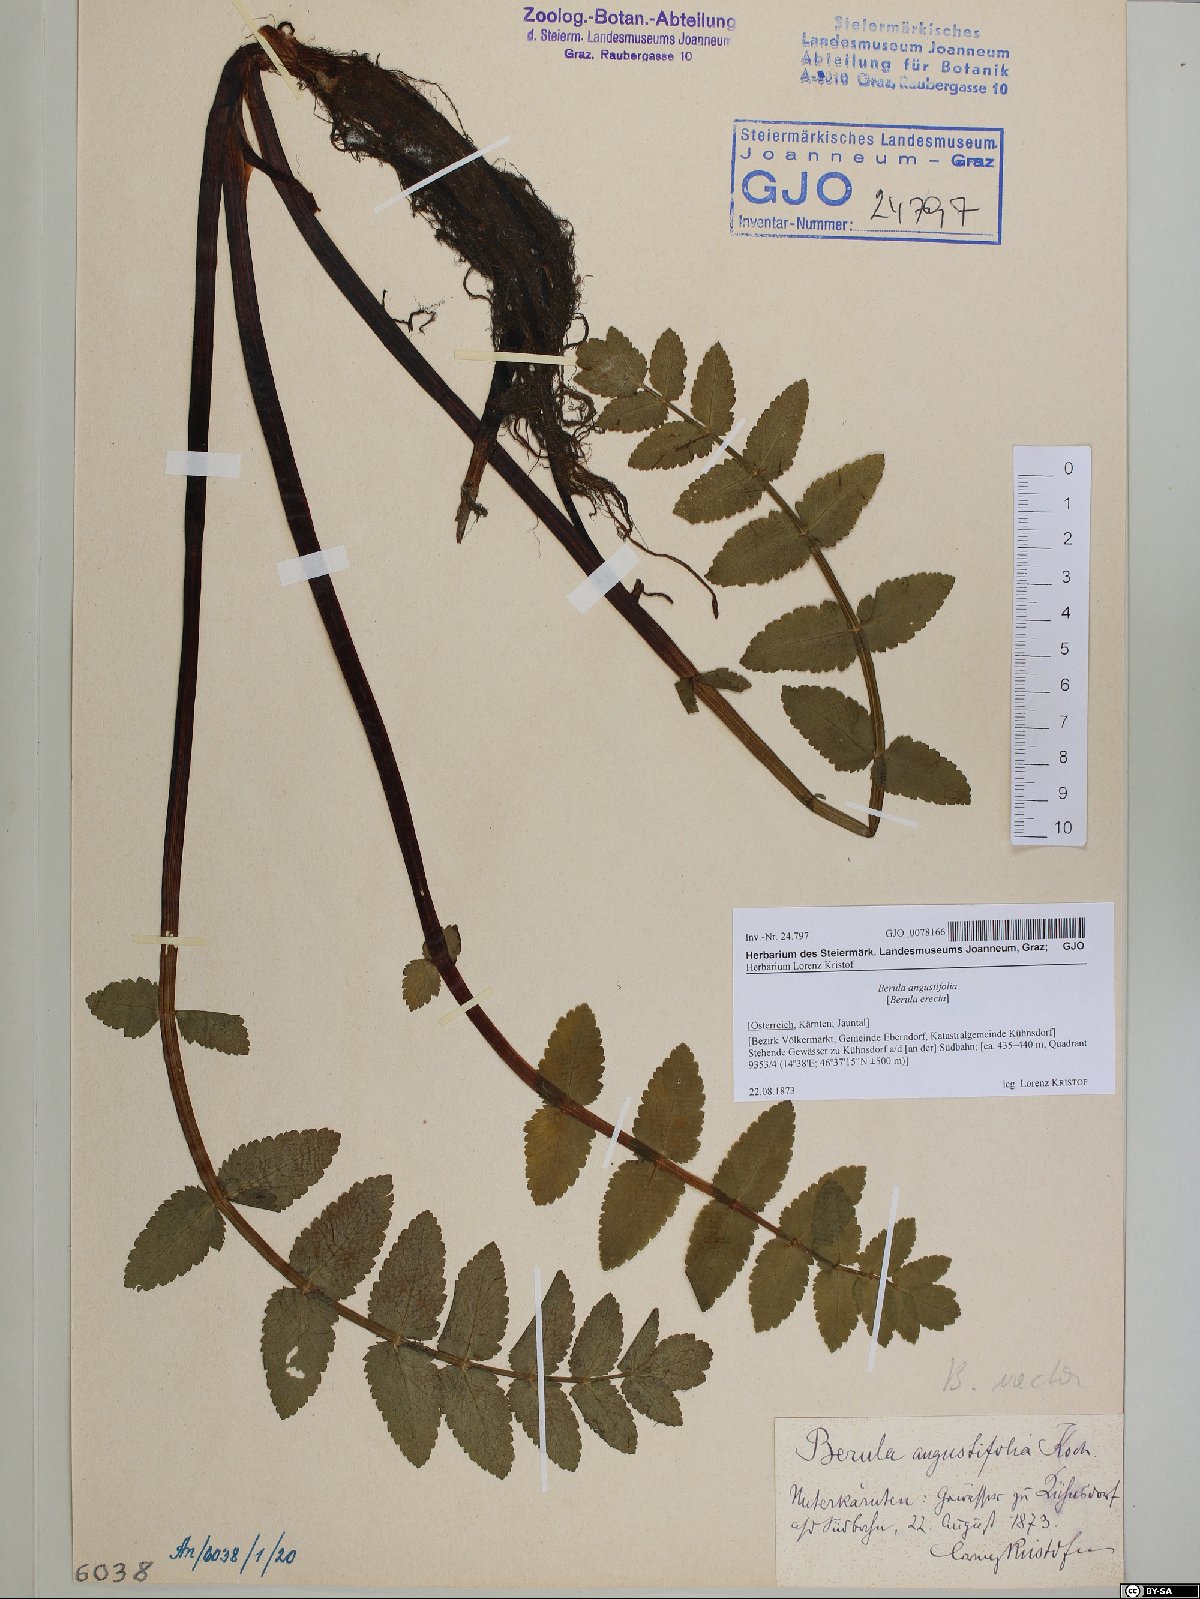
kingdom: Plantae
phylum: Tracheophyta
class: Magnoliopsida
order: Apiales
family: Apiaceae
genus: Berula
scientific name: Berula erecta
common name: Lesser water-parsnip
